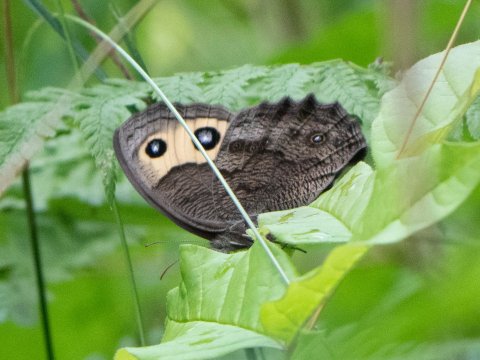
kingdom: Animalia
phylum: Arthropoda
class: Insecta
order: Lepidoptera
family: Nymphalidae
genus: Cercyonis
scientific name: Cercyonis pegala
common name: Common Wood-Nymph
